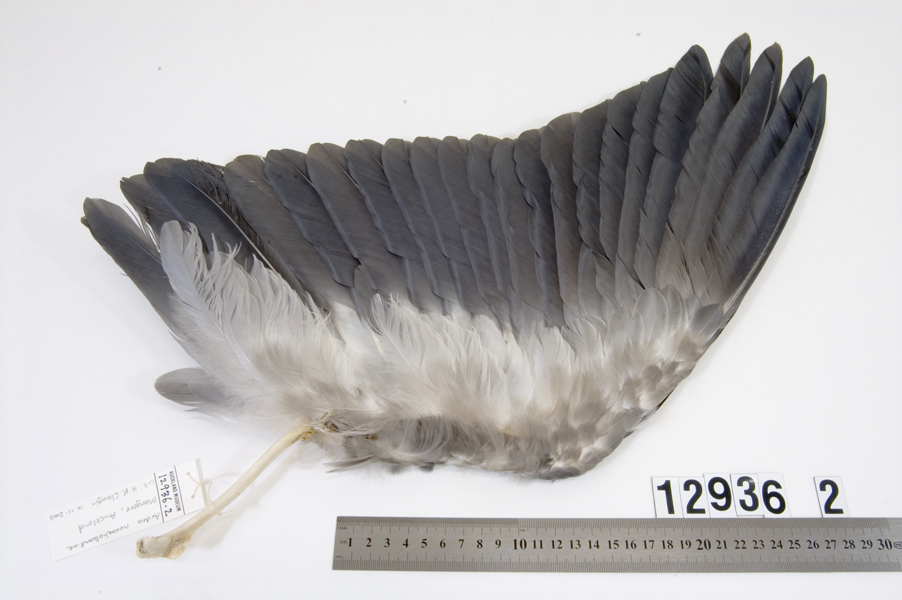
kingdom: Animalia
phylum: Chordata
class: Aves
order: Pelecaniformes
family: Ardeidae
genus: Egretta
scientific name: Egretta novaehollandiae
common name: White-faced heron
